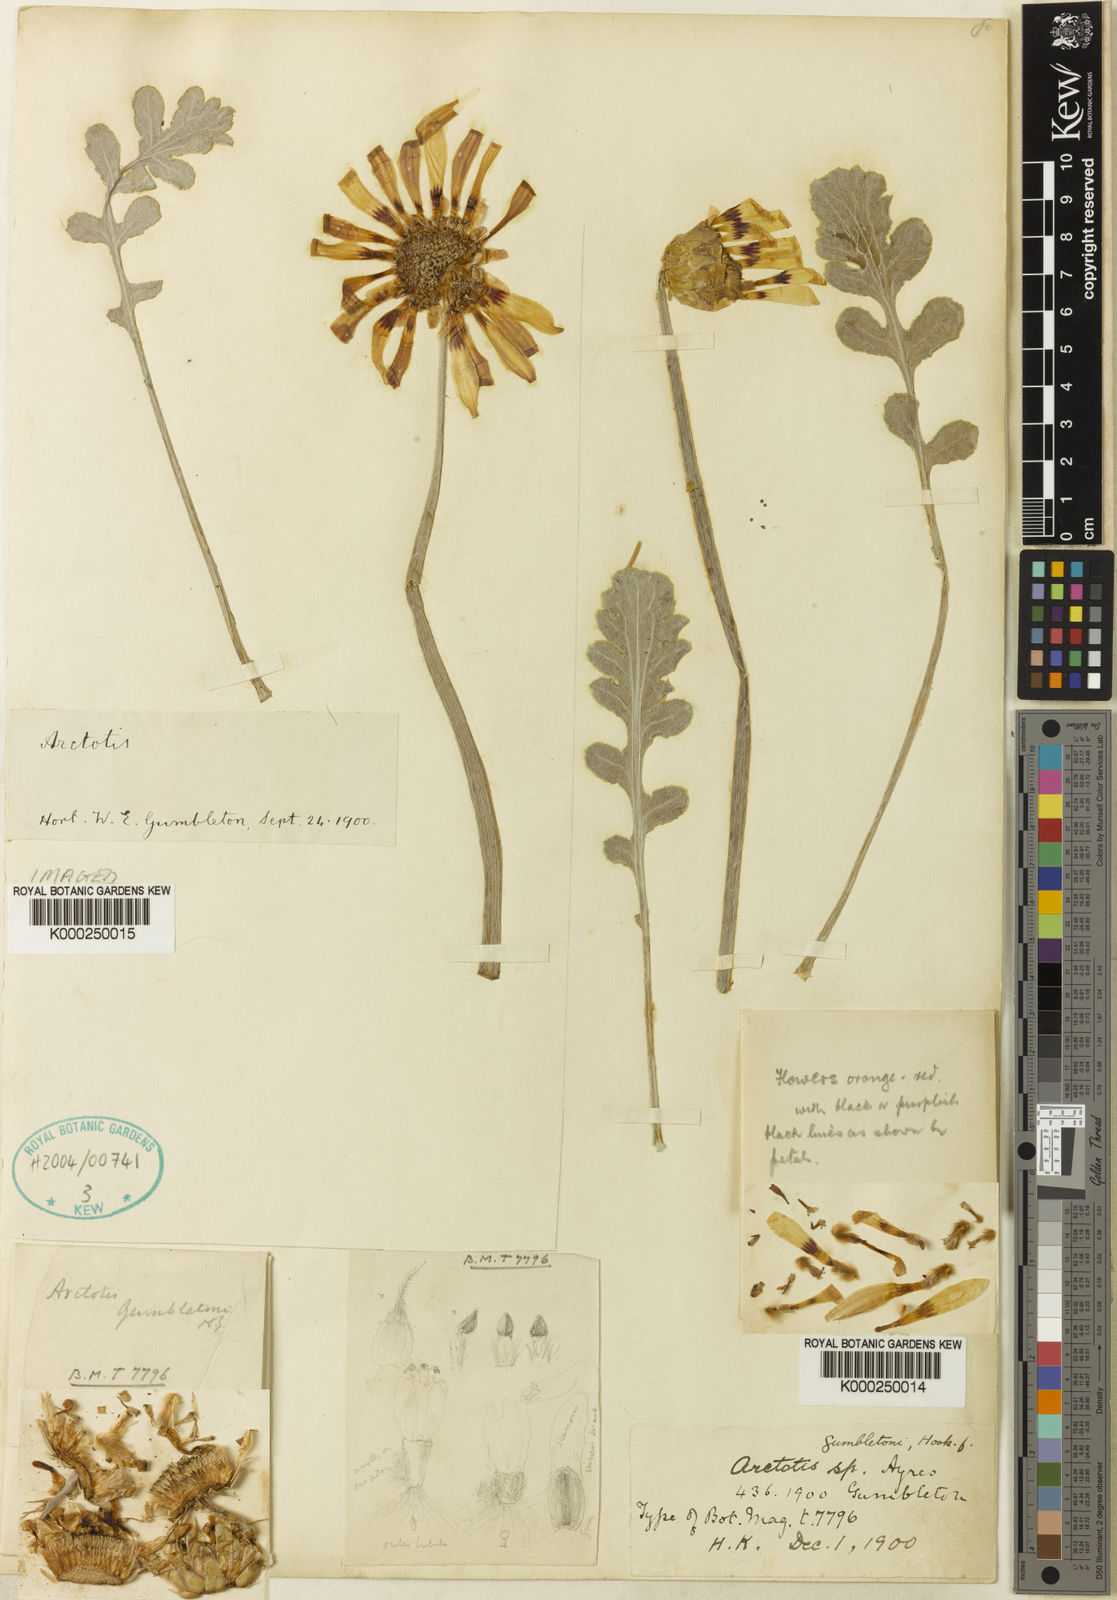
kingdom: Plantae
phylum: Tracheophyta
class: Magnoliopsida
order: Asterales
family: Asteraceae
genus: Arctotis
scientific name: Arctotis incisa
